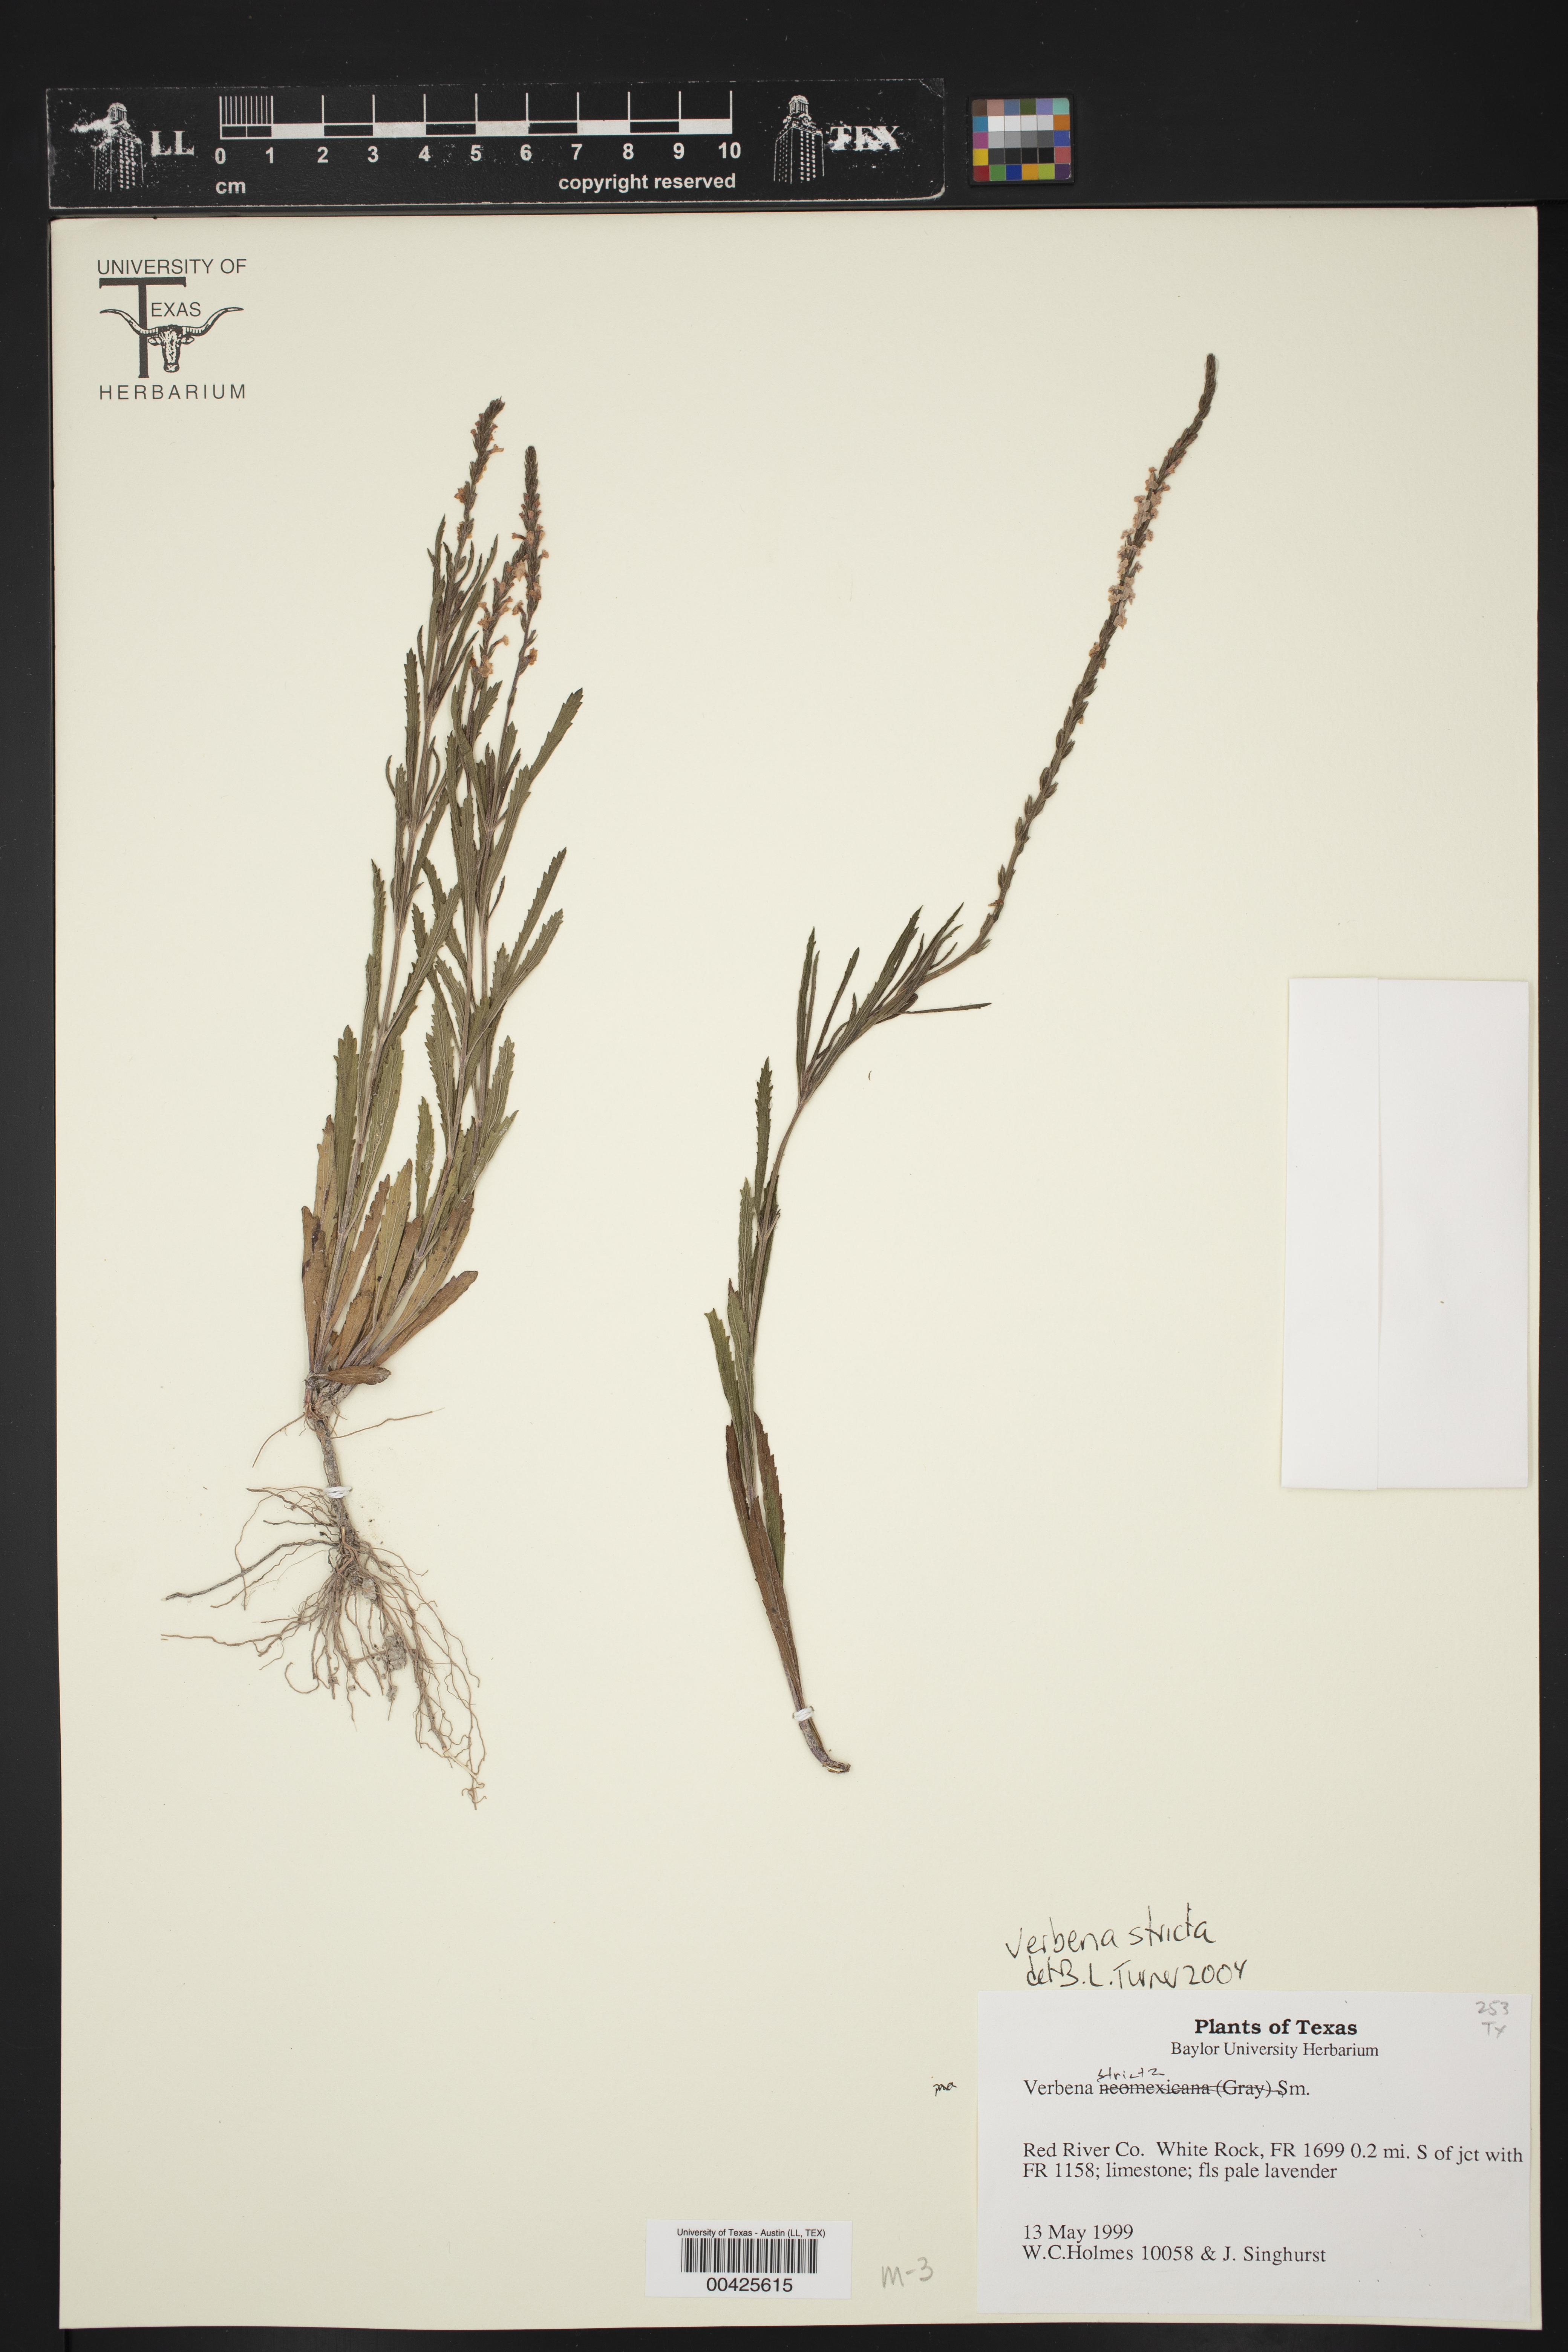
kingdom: Plantae
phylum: Tracheophyta
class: Magnoliopsida
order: Lamiales
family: Verbenaceae
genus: Verbena
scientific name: Verbena stricta
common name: Hoary vervain
